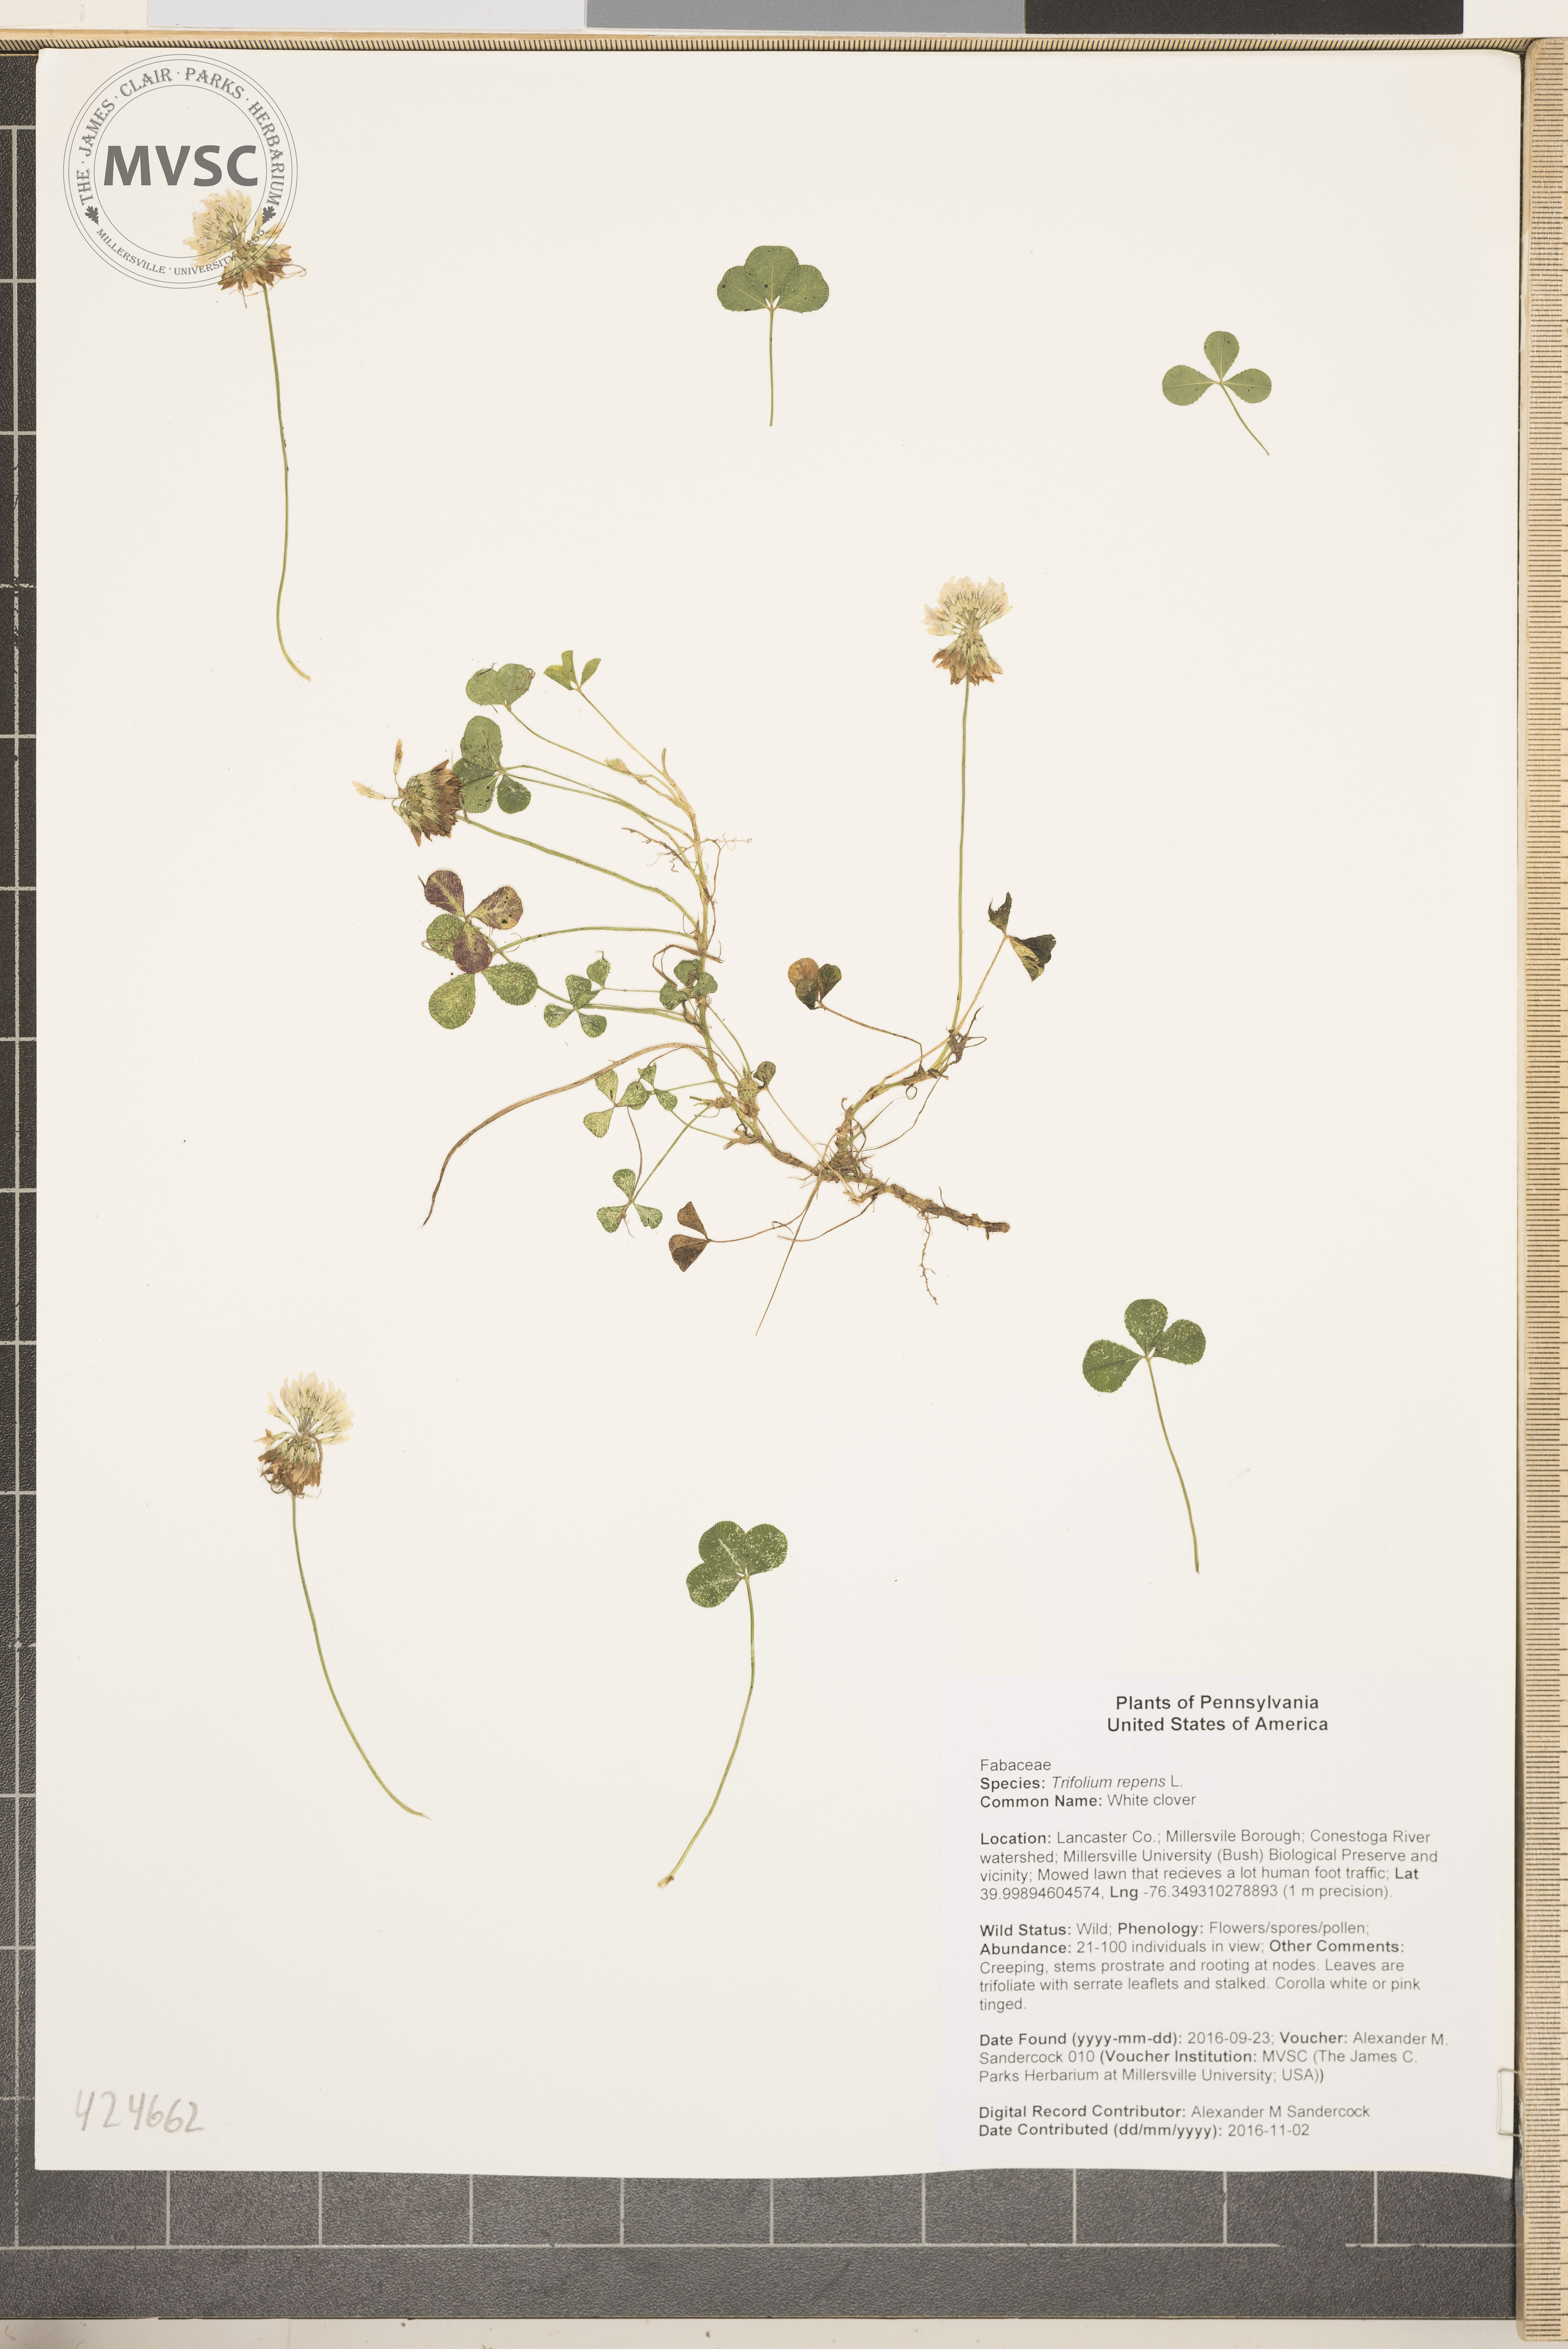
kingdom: Plantae
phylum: Tracheophyta
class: Magnoliopsida
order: Fabales
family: Fabaceae
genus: Trifolium
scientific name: Trifolium repens
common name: White clover
